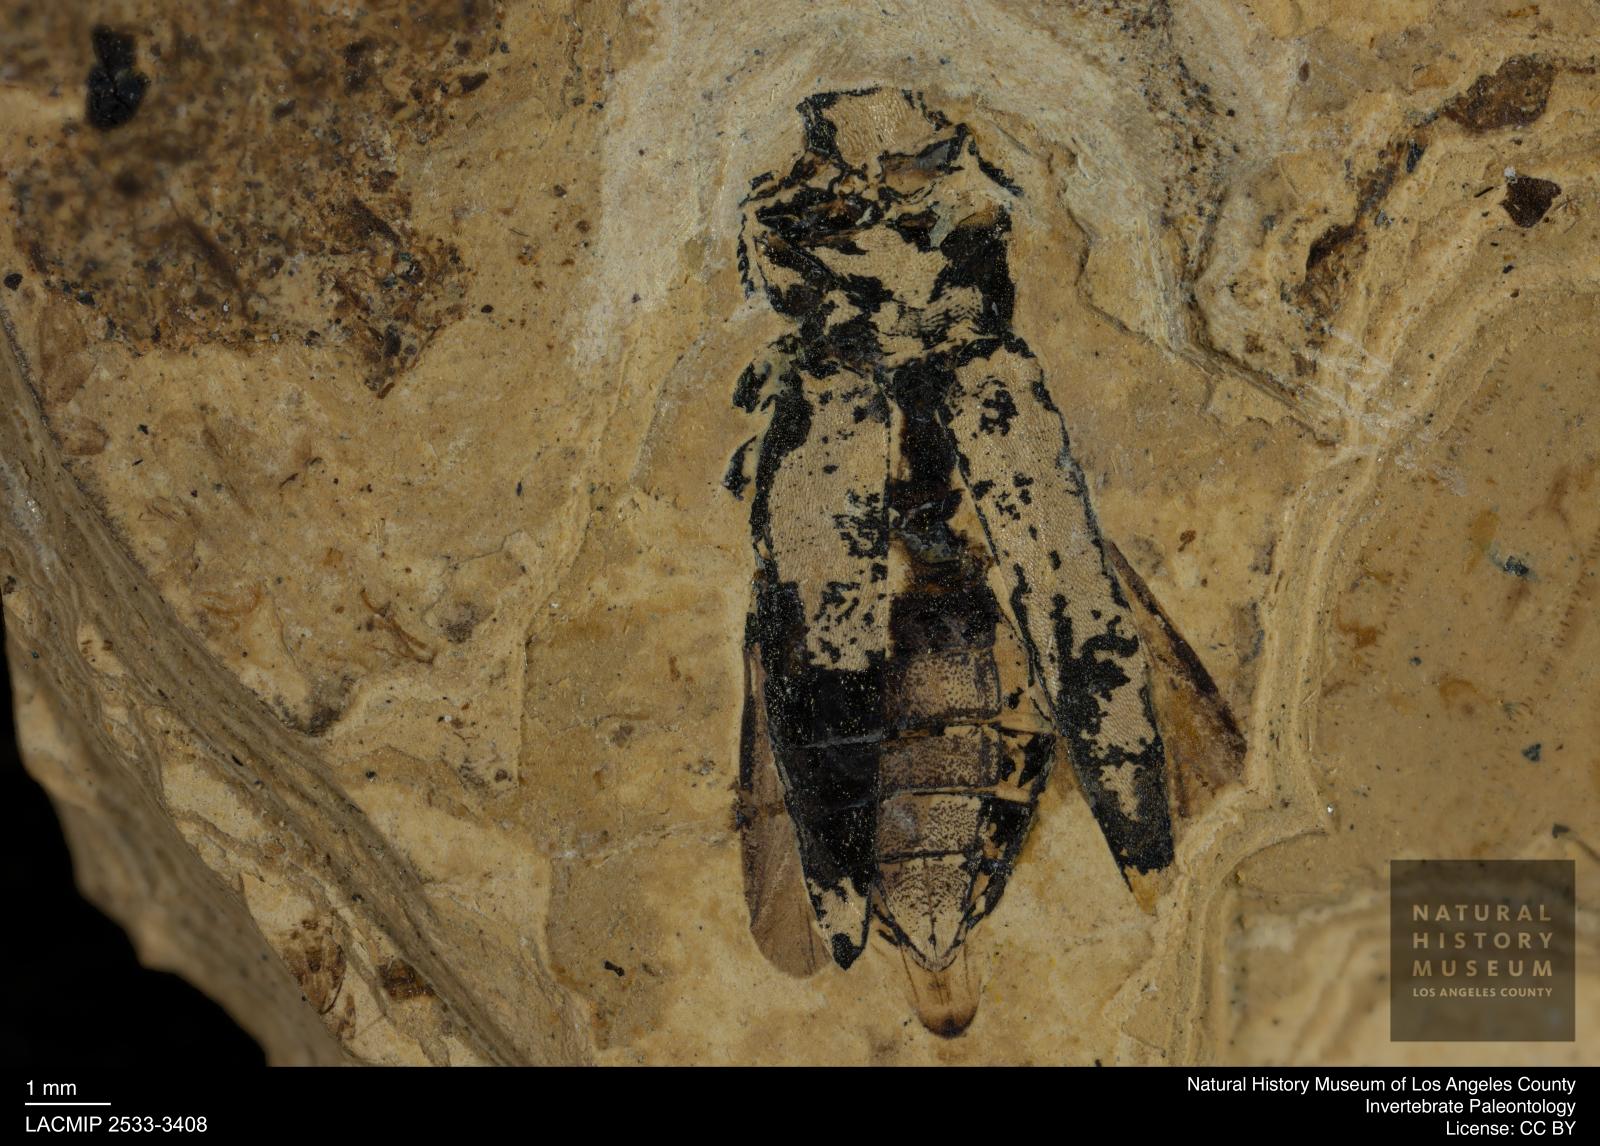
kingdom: Animalia
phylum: Arthropoda
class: Insecta
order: Coleoptera
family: Buprestidae
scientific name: Buprestidae
